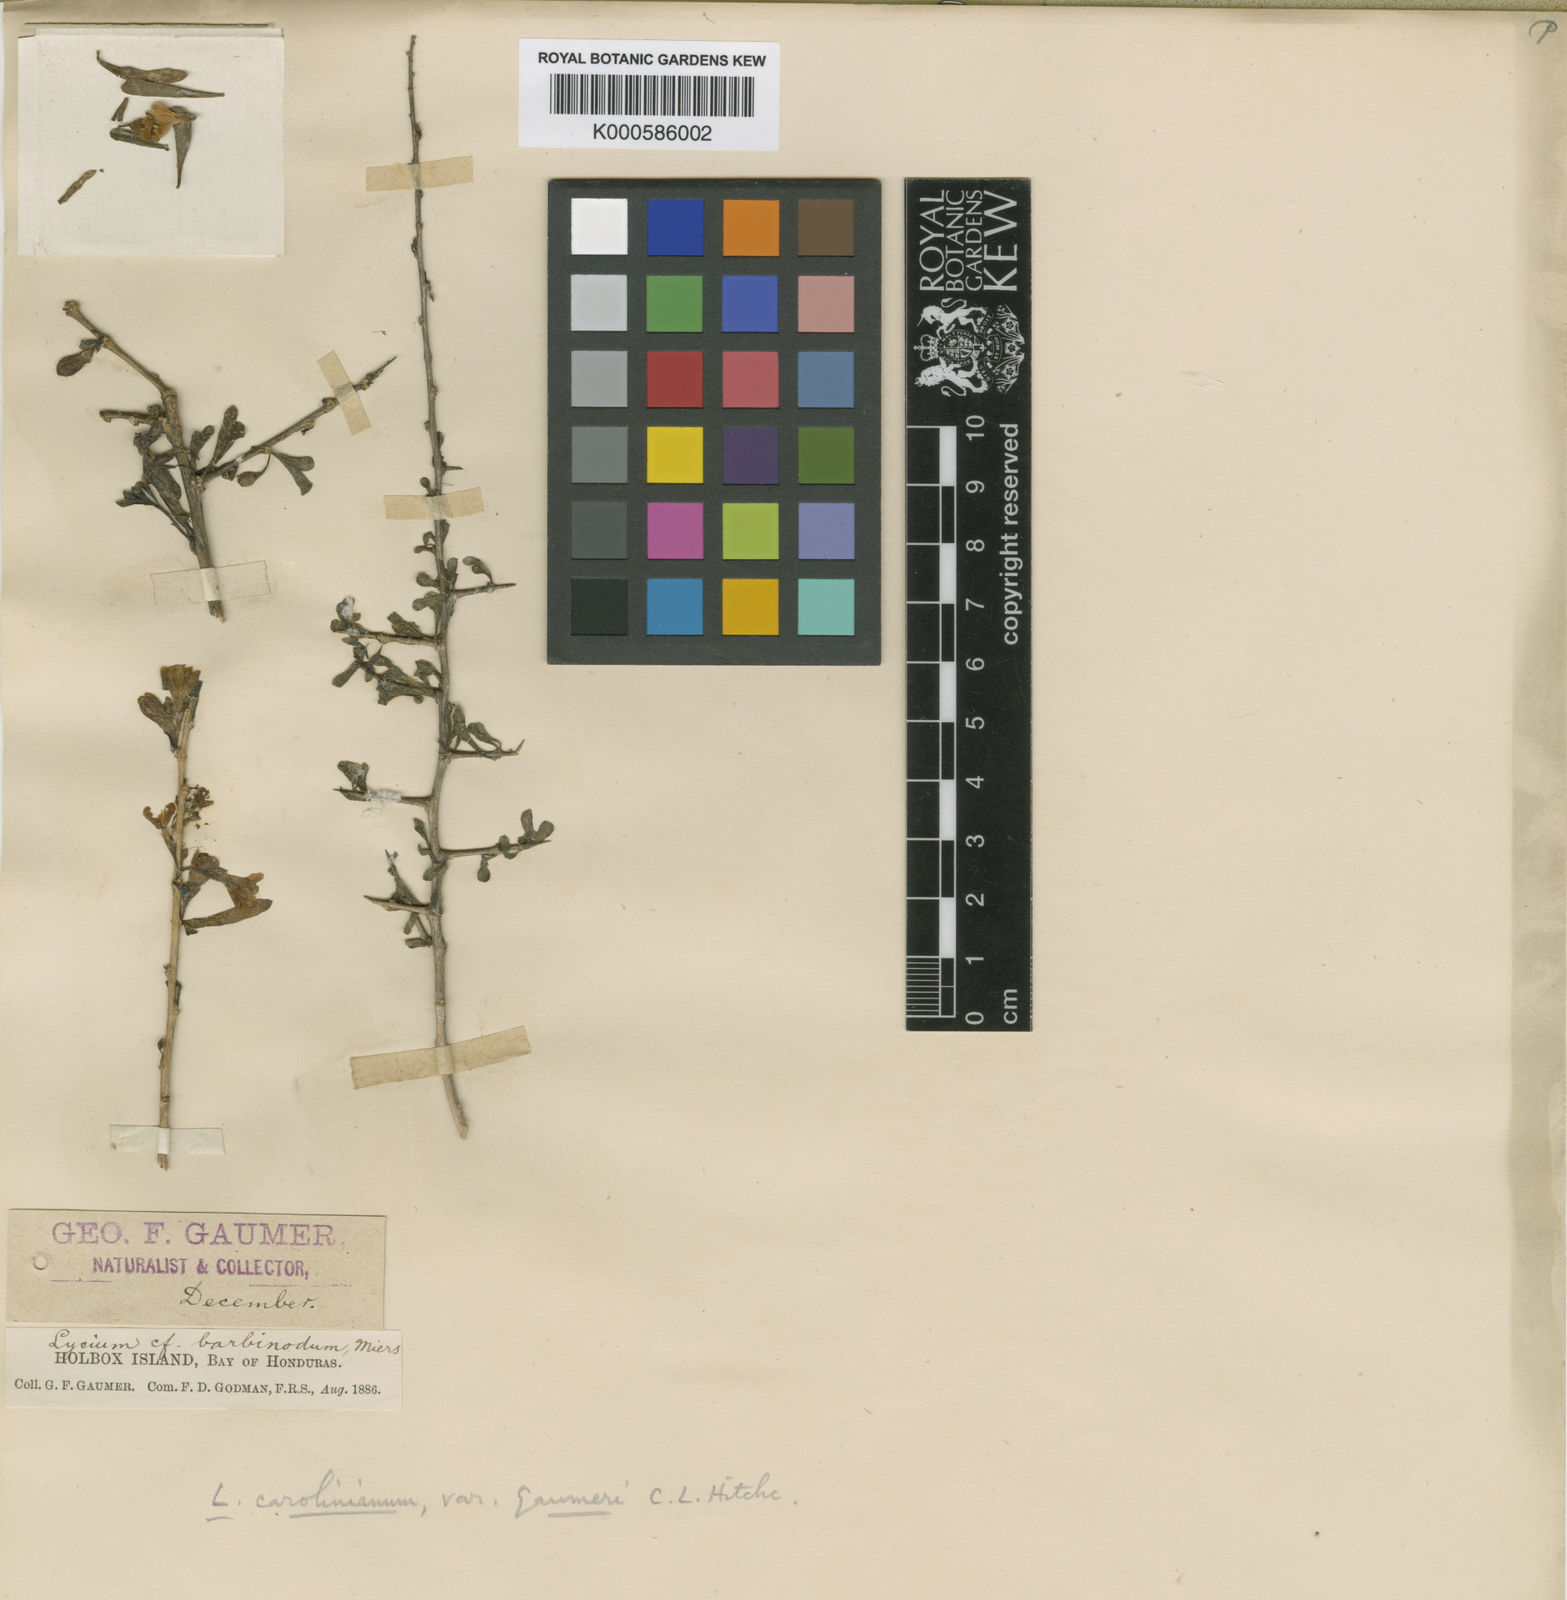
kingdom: Plantae
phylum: Tracheophyta
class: Magnoliopsida
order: Solanales
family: Solanaceae
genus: Lycium
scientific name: Lycium carolinianum
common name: Christmasberry
